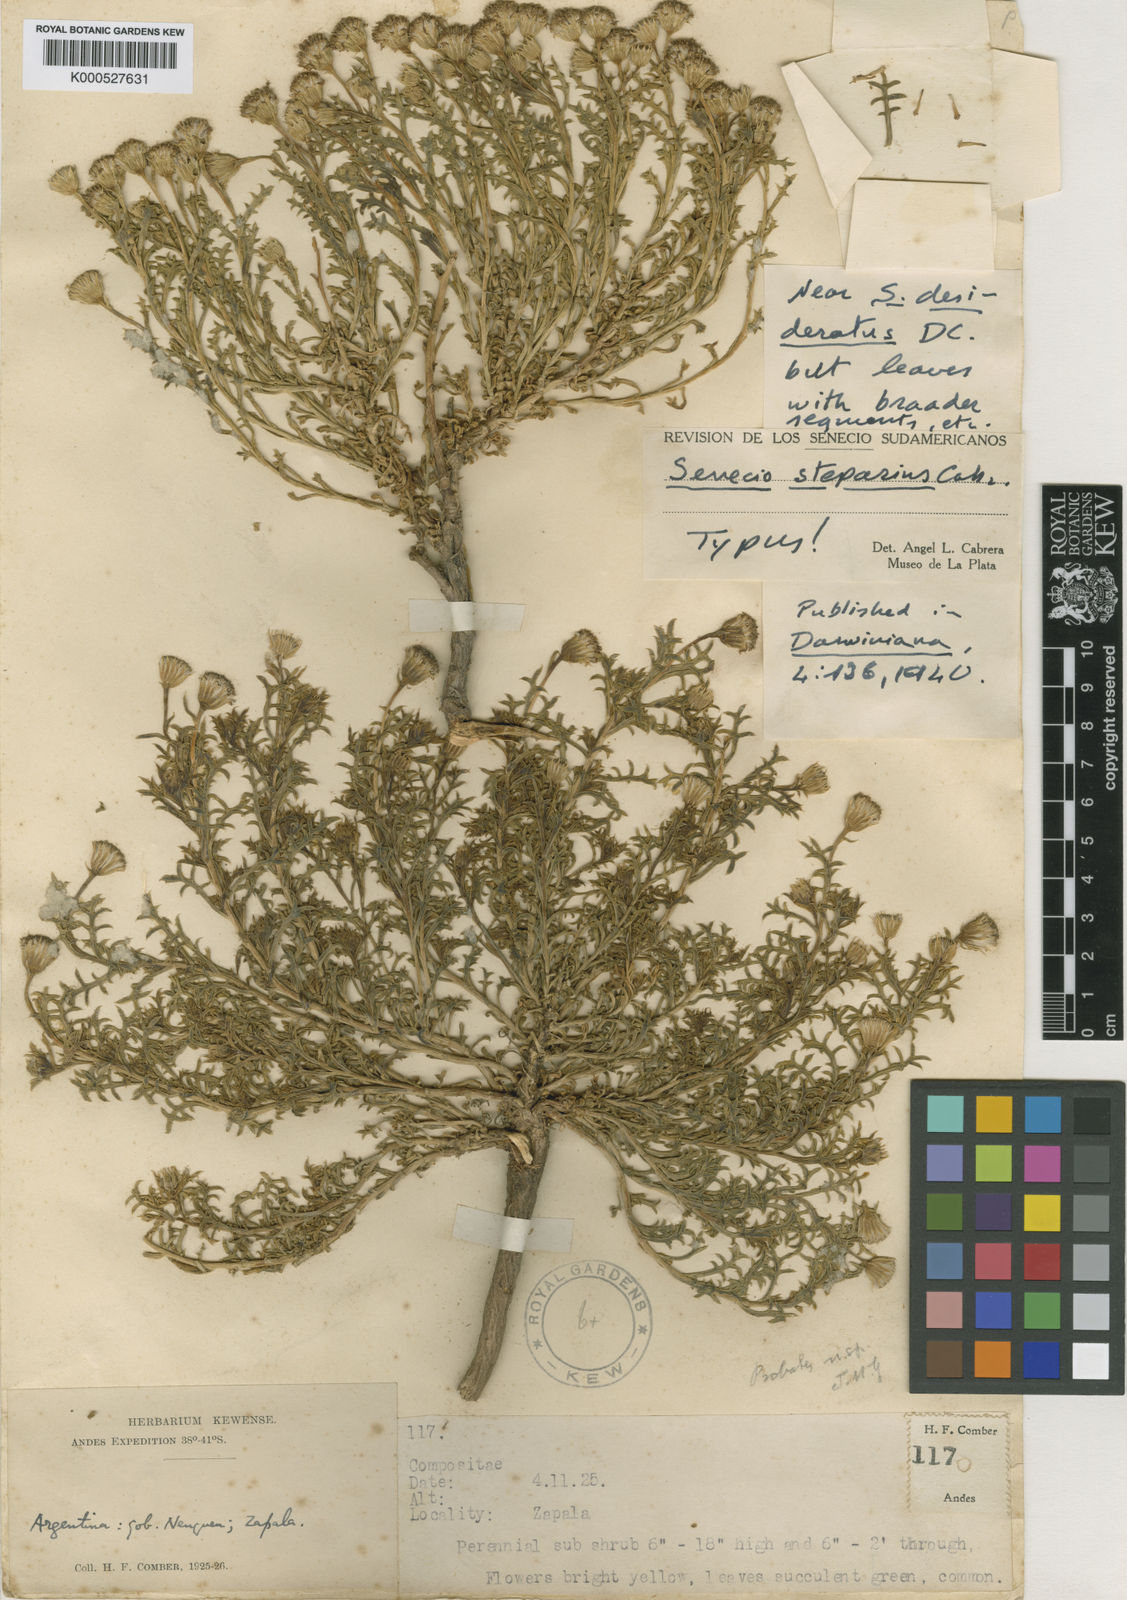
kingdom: Plantae
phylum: Tracheophyta
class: Magnoliopsida
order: Asterales
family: Asteraceae
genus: Senecio
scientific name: Senecio steparius
